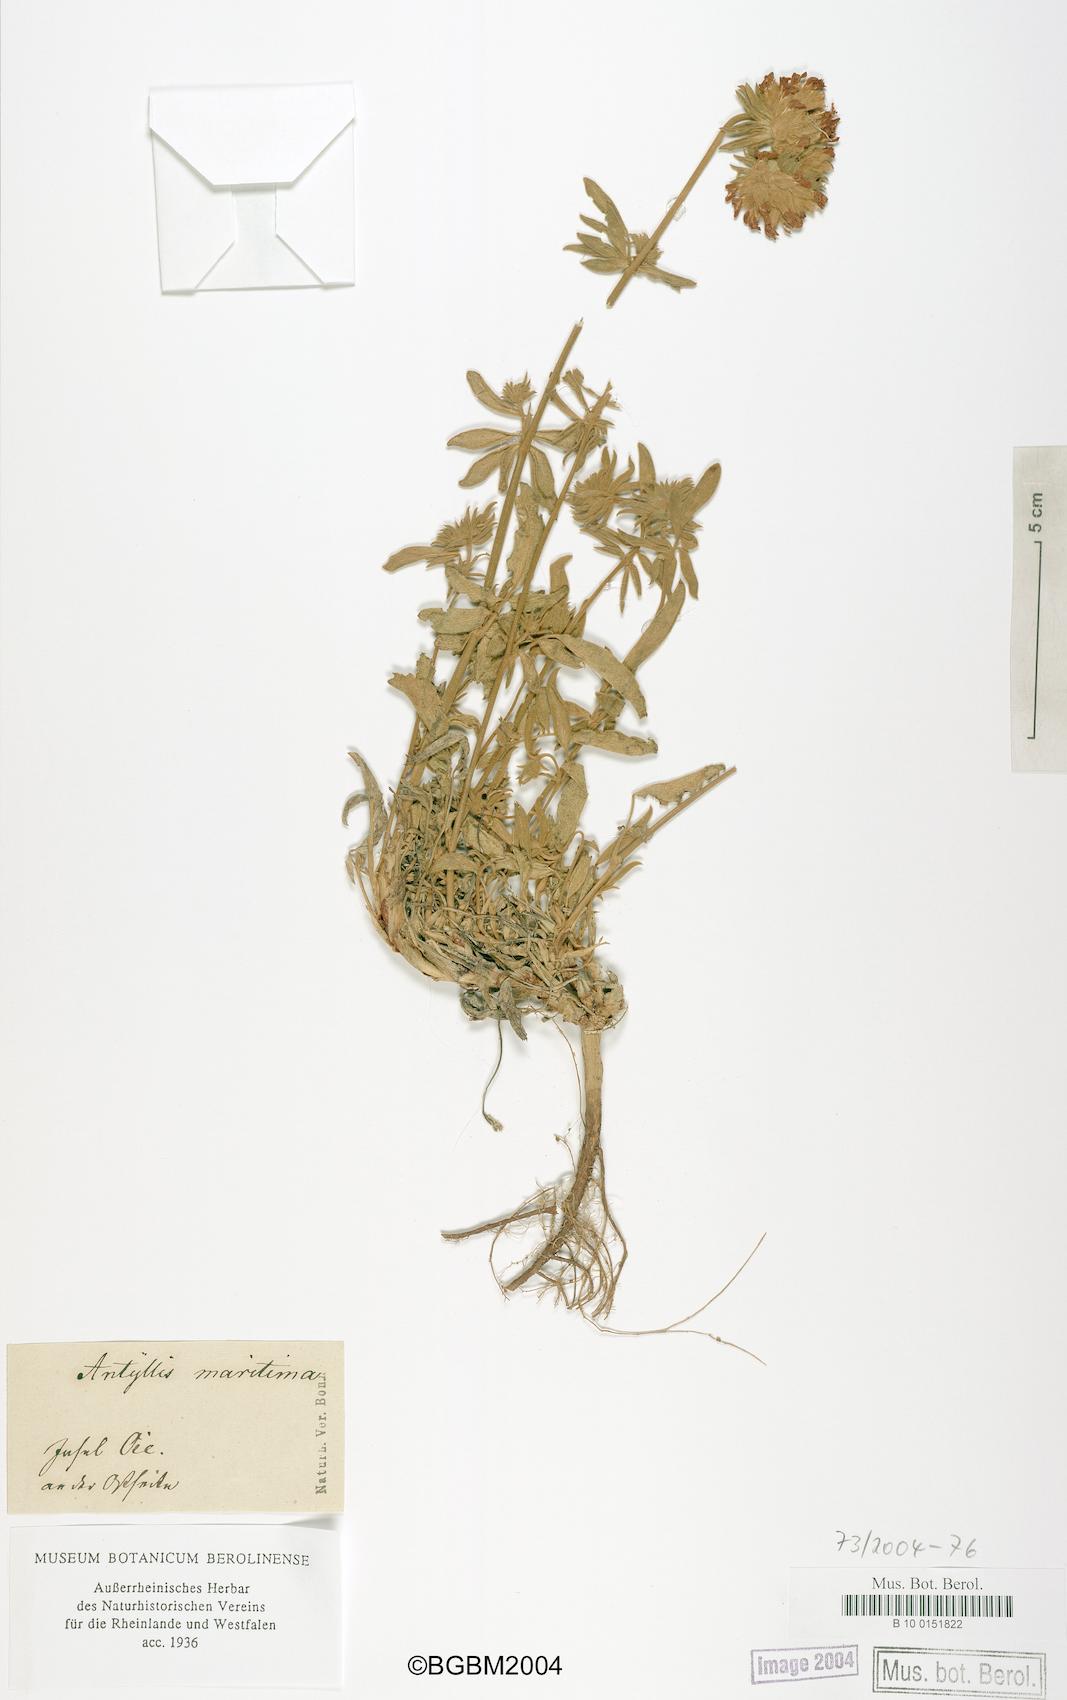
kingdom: Plantae
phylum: Tracheophyta
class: Magnoliopsida
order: Fabales
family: Fabaceae
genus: Anthyllis
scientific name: Anthyllis vulneraria
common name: Kidney vetch
